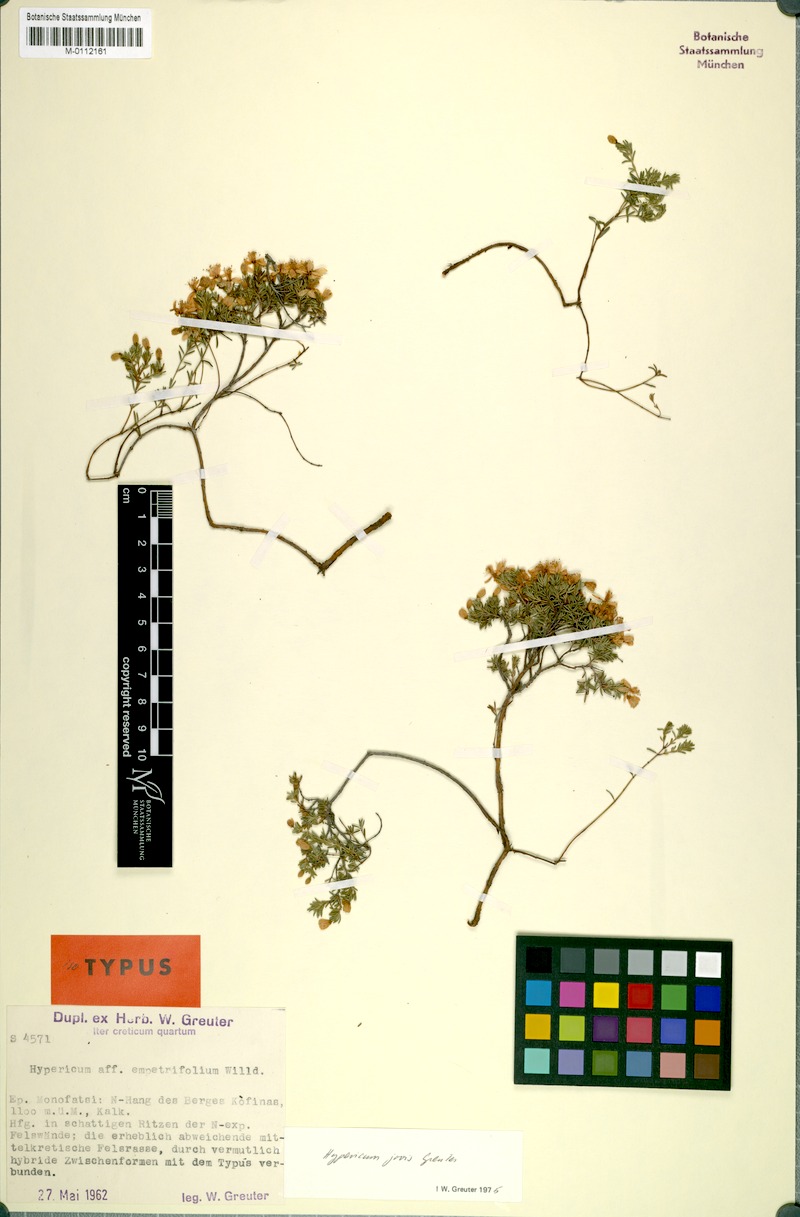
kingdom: Plantae
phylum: Tracheophyta
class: Magnoliopsida
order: Malpighiales
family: Hypericaceae
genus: Hypericum
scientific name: Hypericum jovis
